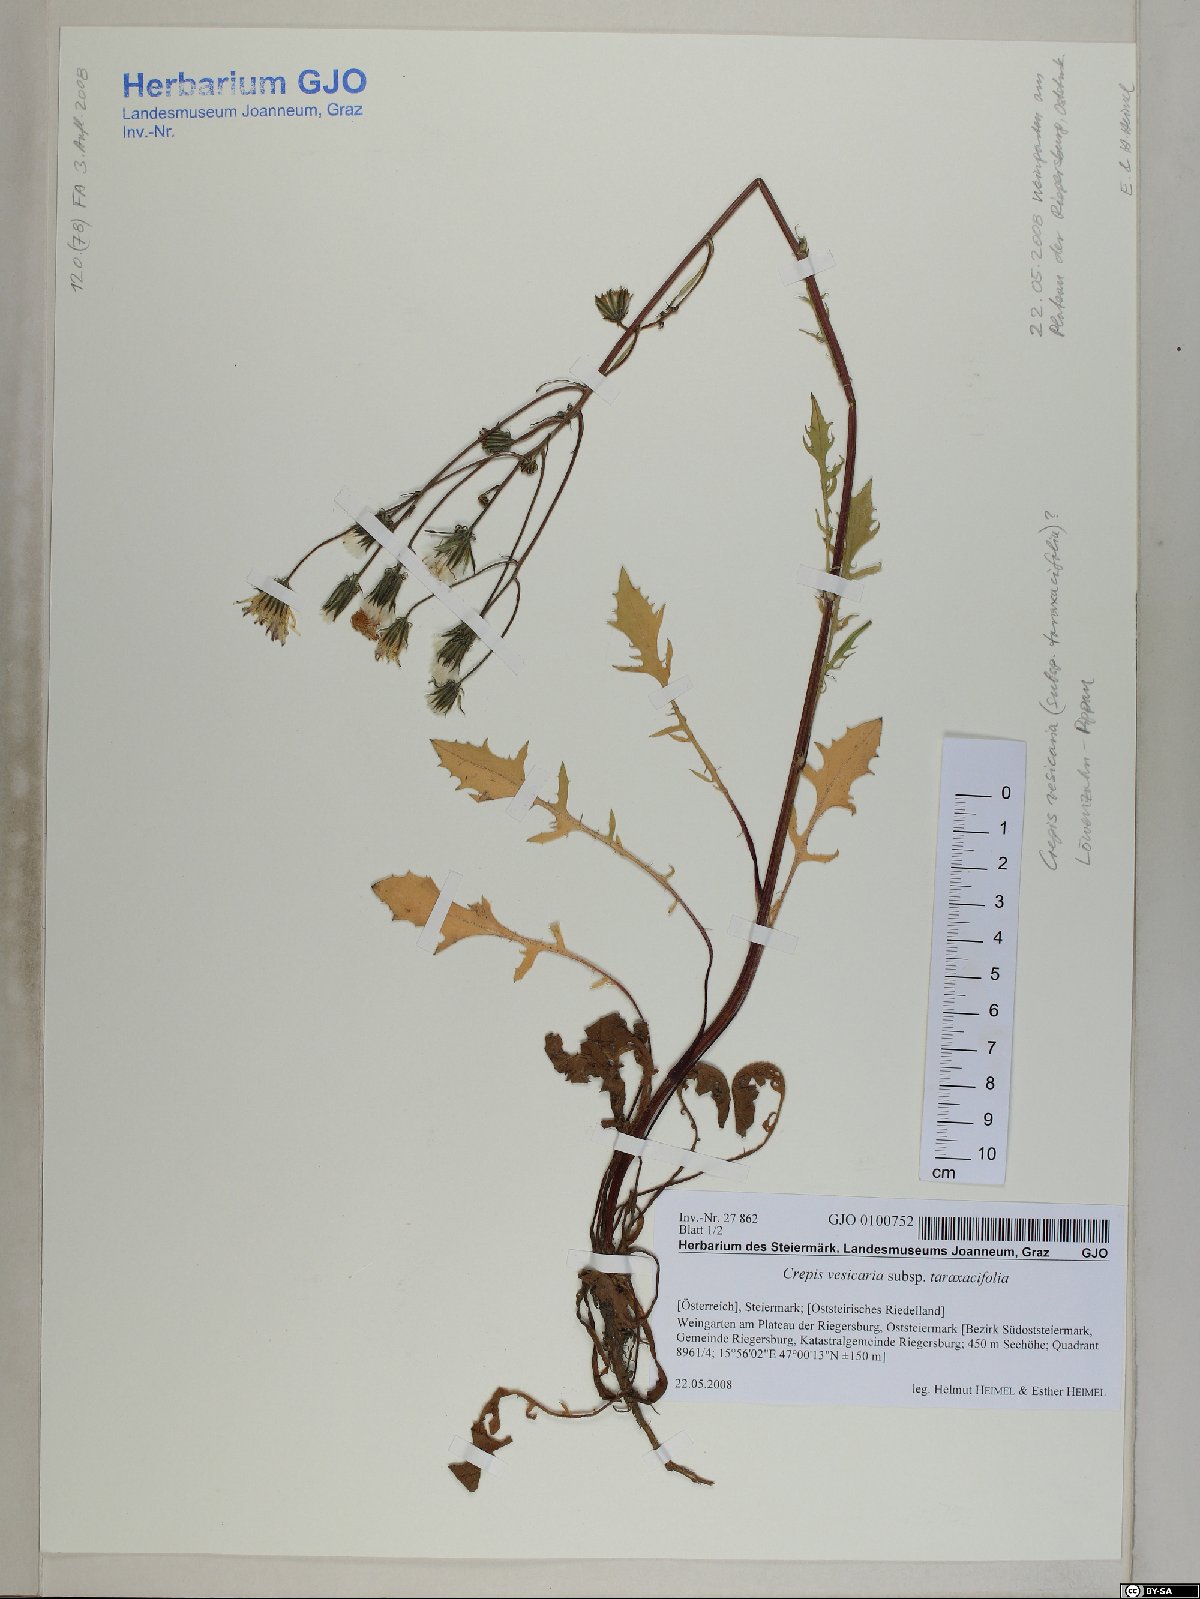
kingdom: Plantae
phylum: Tracheophyta
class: Magnoliopsida
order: Asterales
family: Asteraceae
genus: Crepis
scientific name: Crepis vesicaria
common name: Beaked hawksbeard
